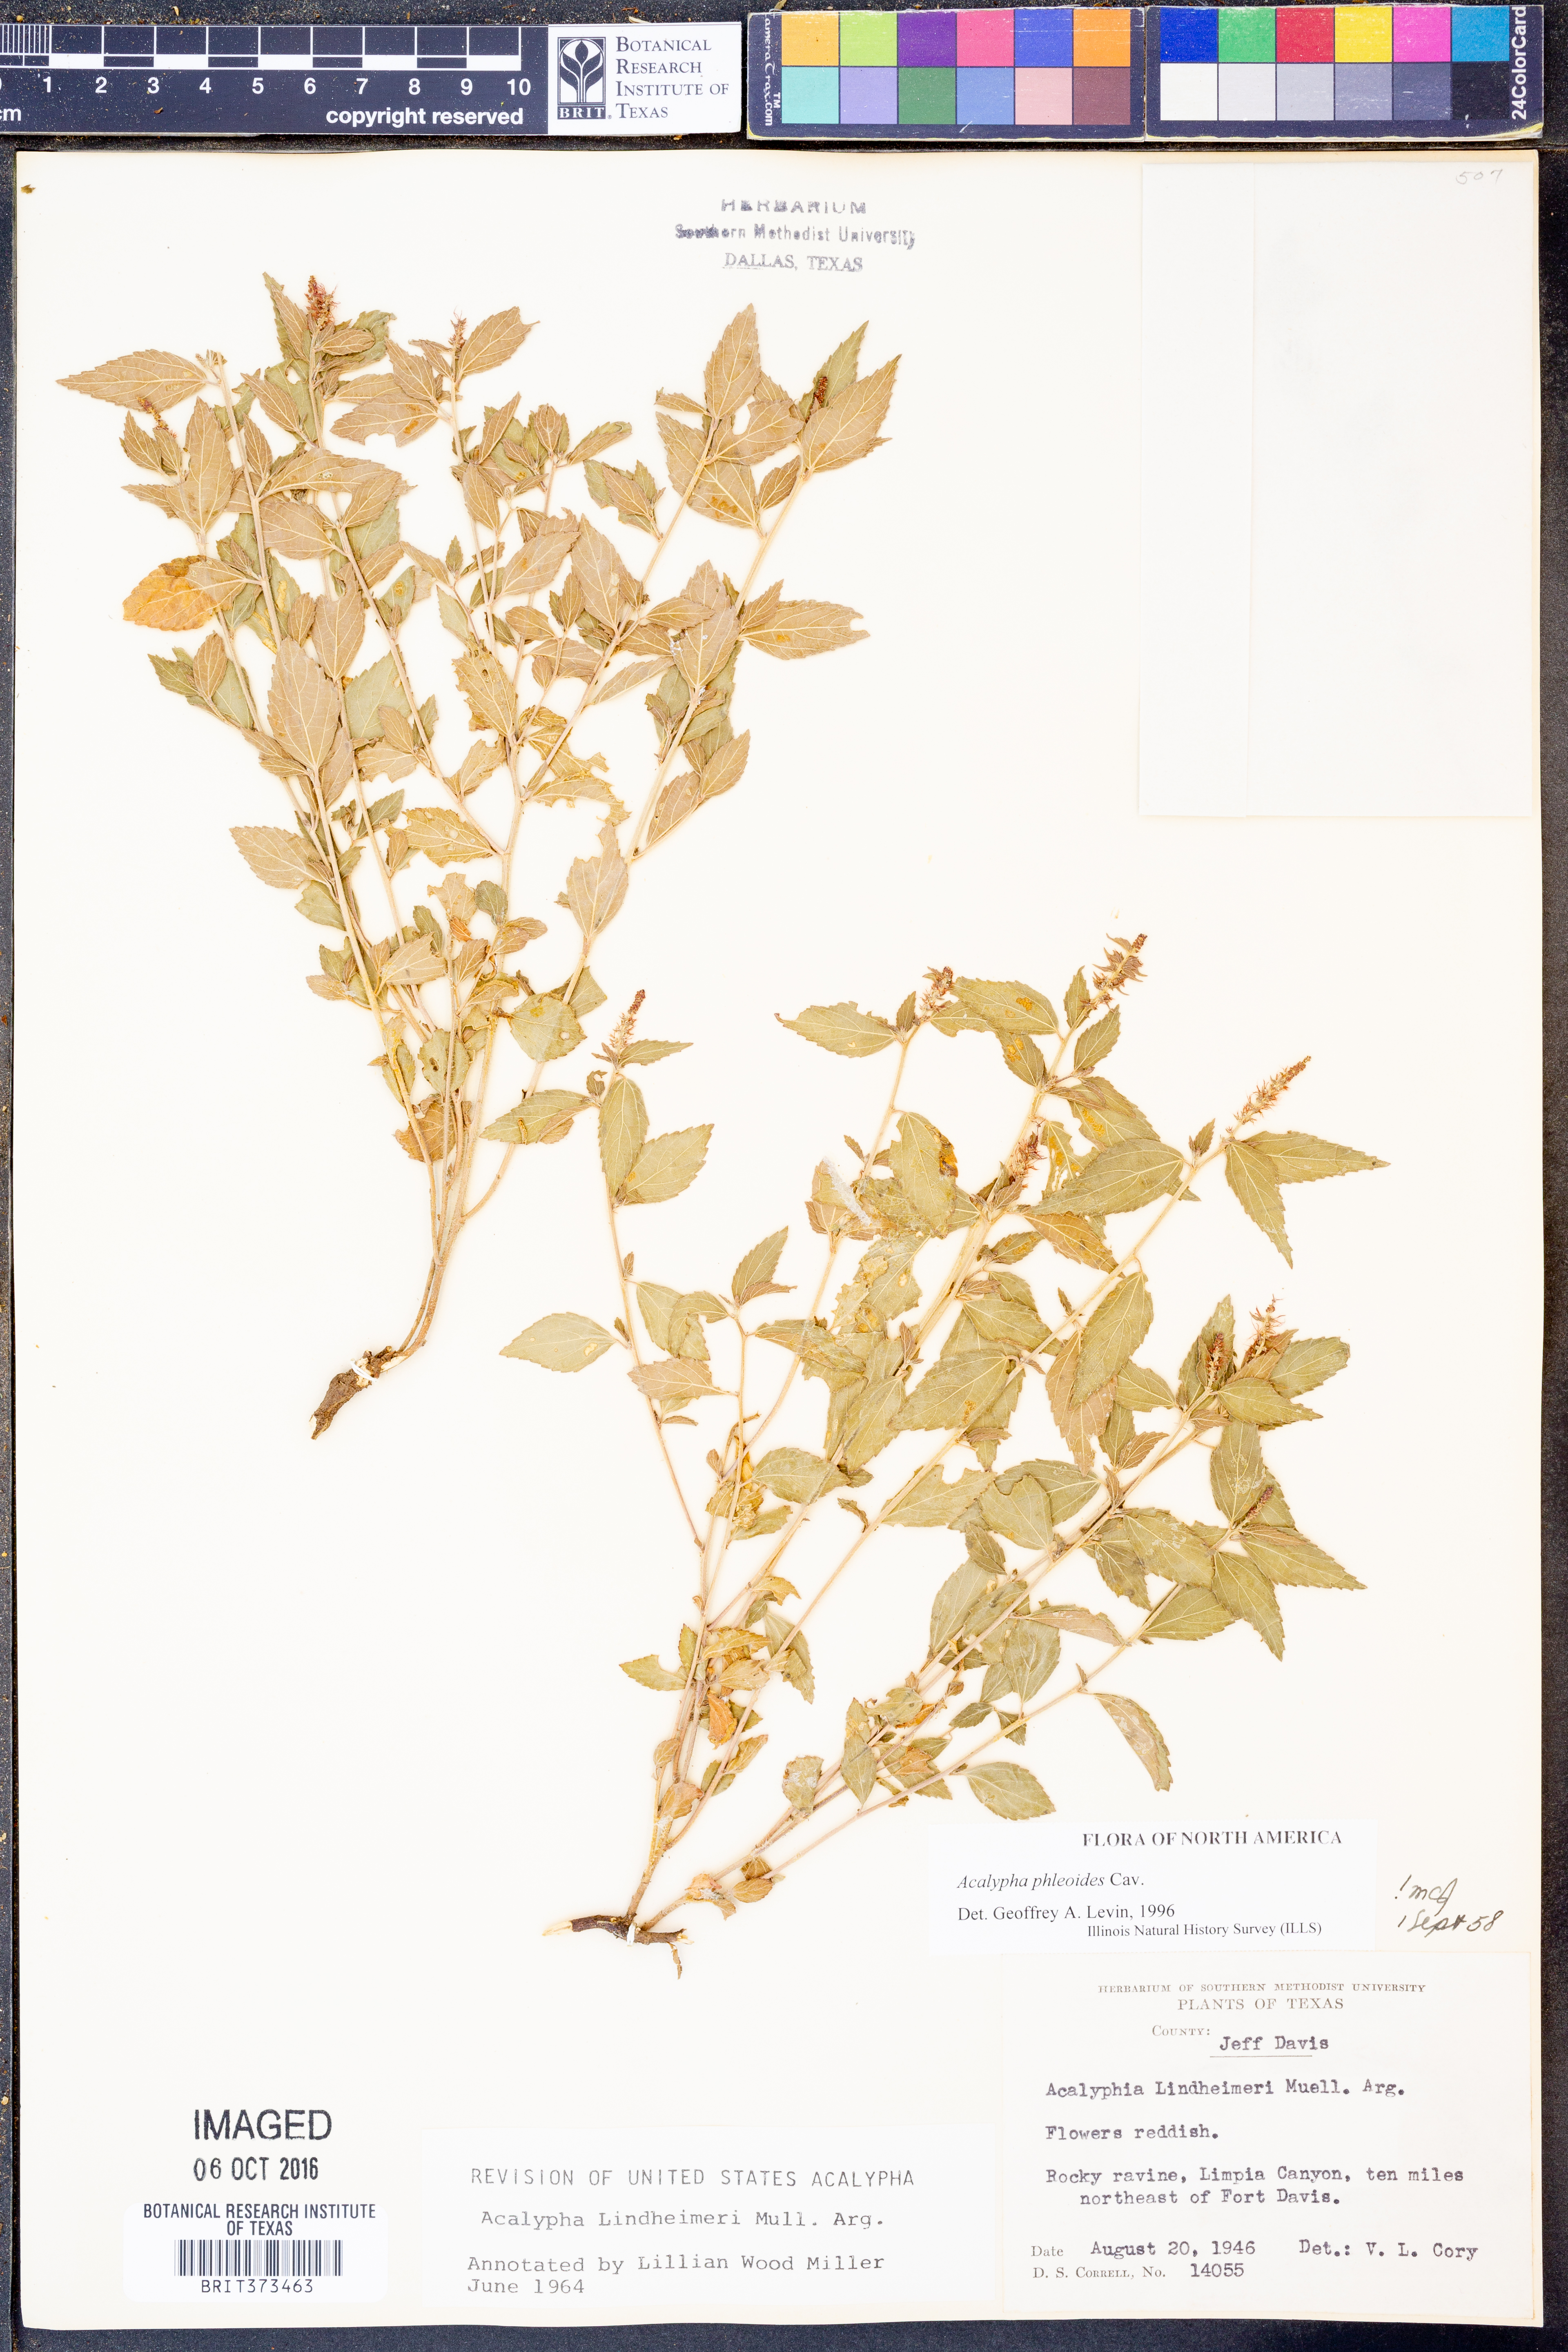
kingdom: Plantae
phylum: Tracheophyta
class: Magnoliopsida
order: Malpighiales
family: Euphorbiaceae
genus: Acalypha
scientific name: Acalypha phleoides
